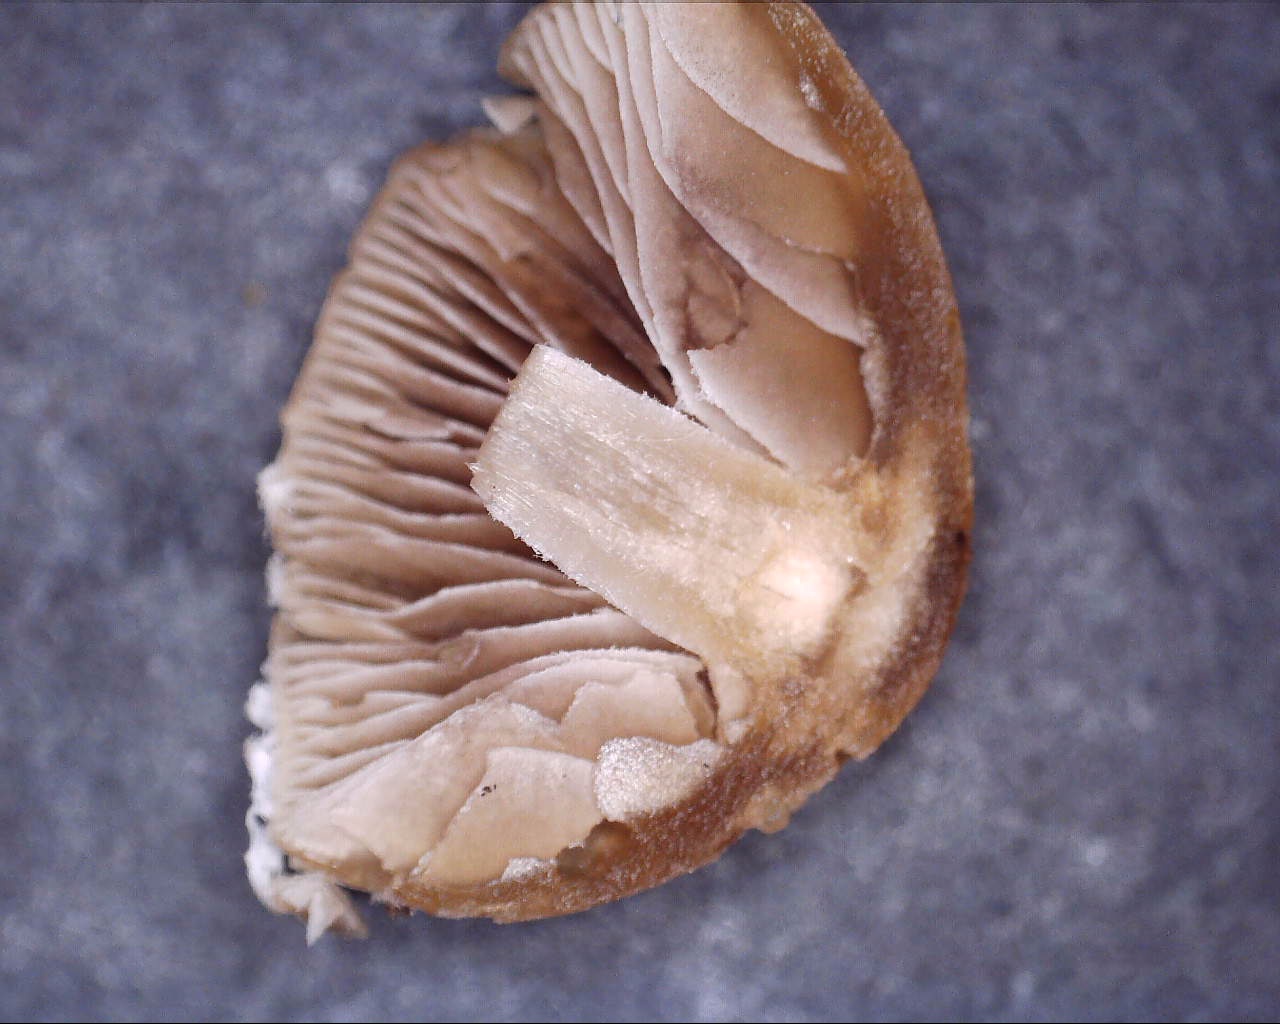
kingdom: Fungi
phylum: Basidiomycota
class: Agaricomycetes
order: Agaricales
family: Psathyrellaceae
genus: Psathyrella
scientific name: Psathyrella
